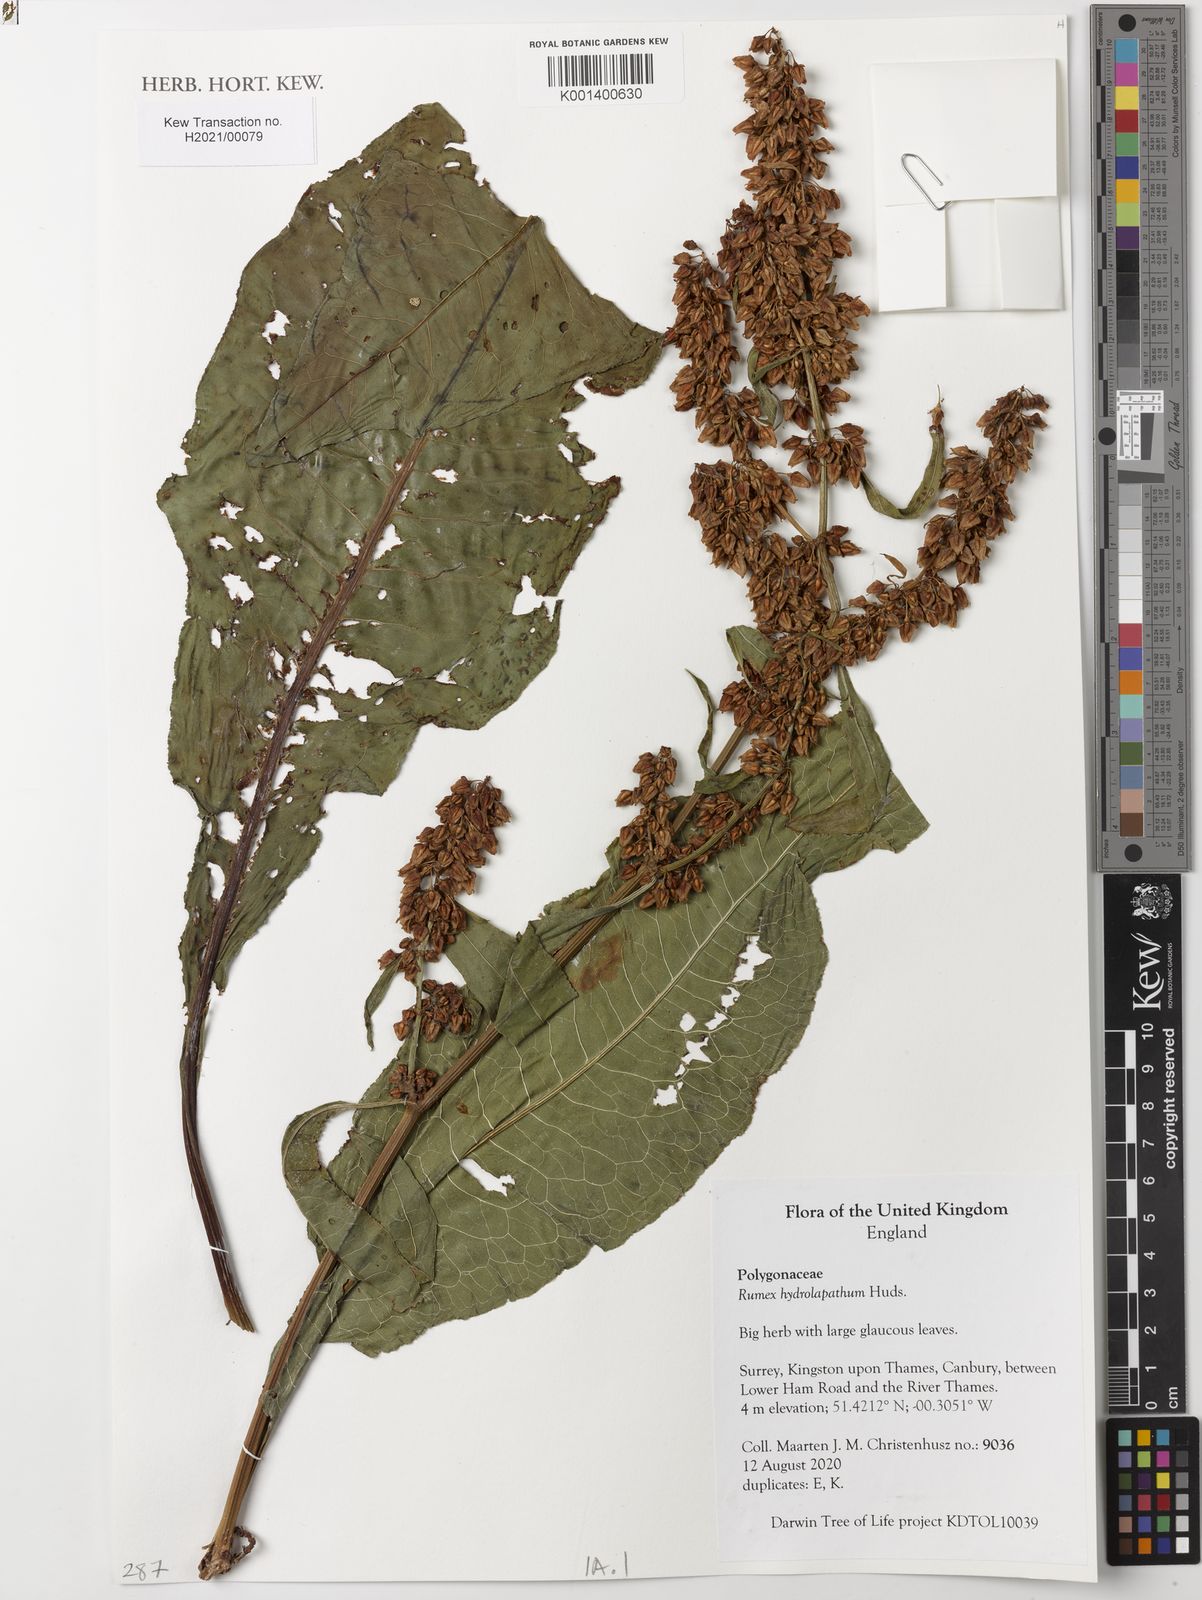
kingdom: Plantae
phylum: Tracheophyta
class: Magnoliopsida
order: Caryophyllales
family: Polygonaceae
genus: Rumex
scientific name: Rumex hydrolapathum
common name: Water dock
